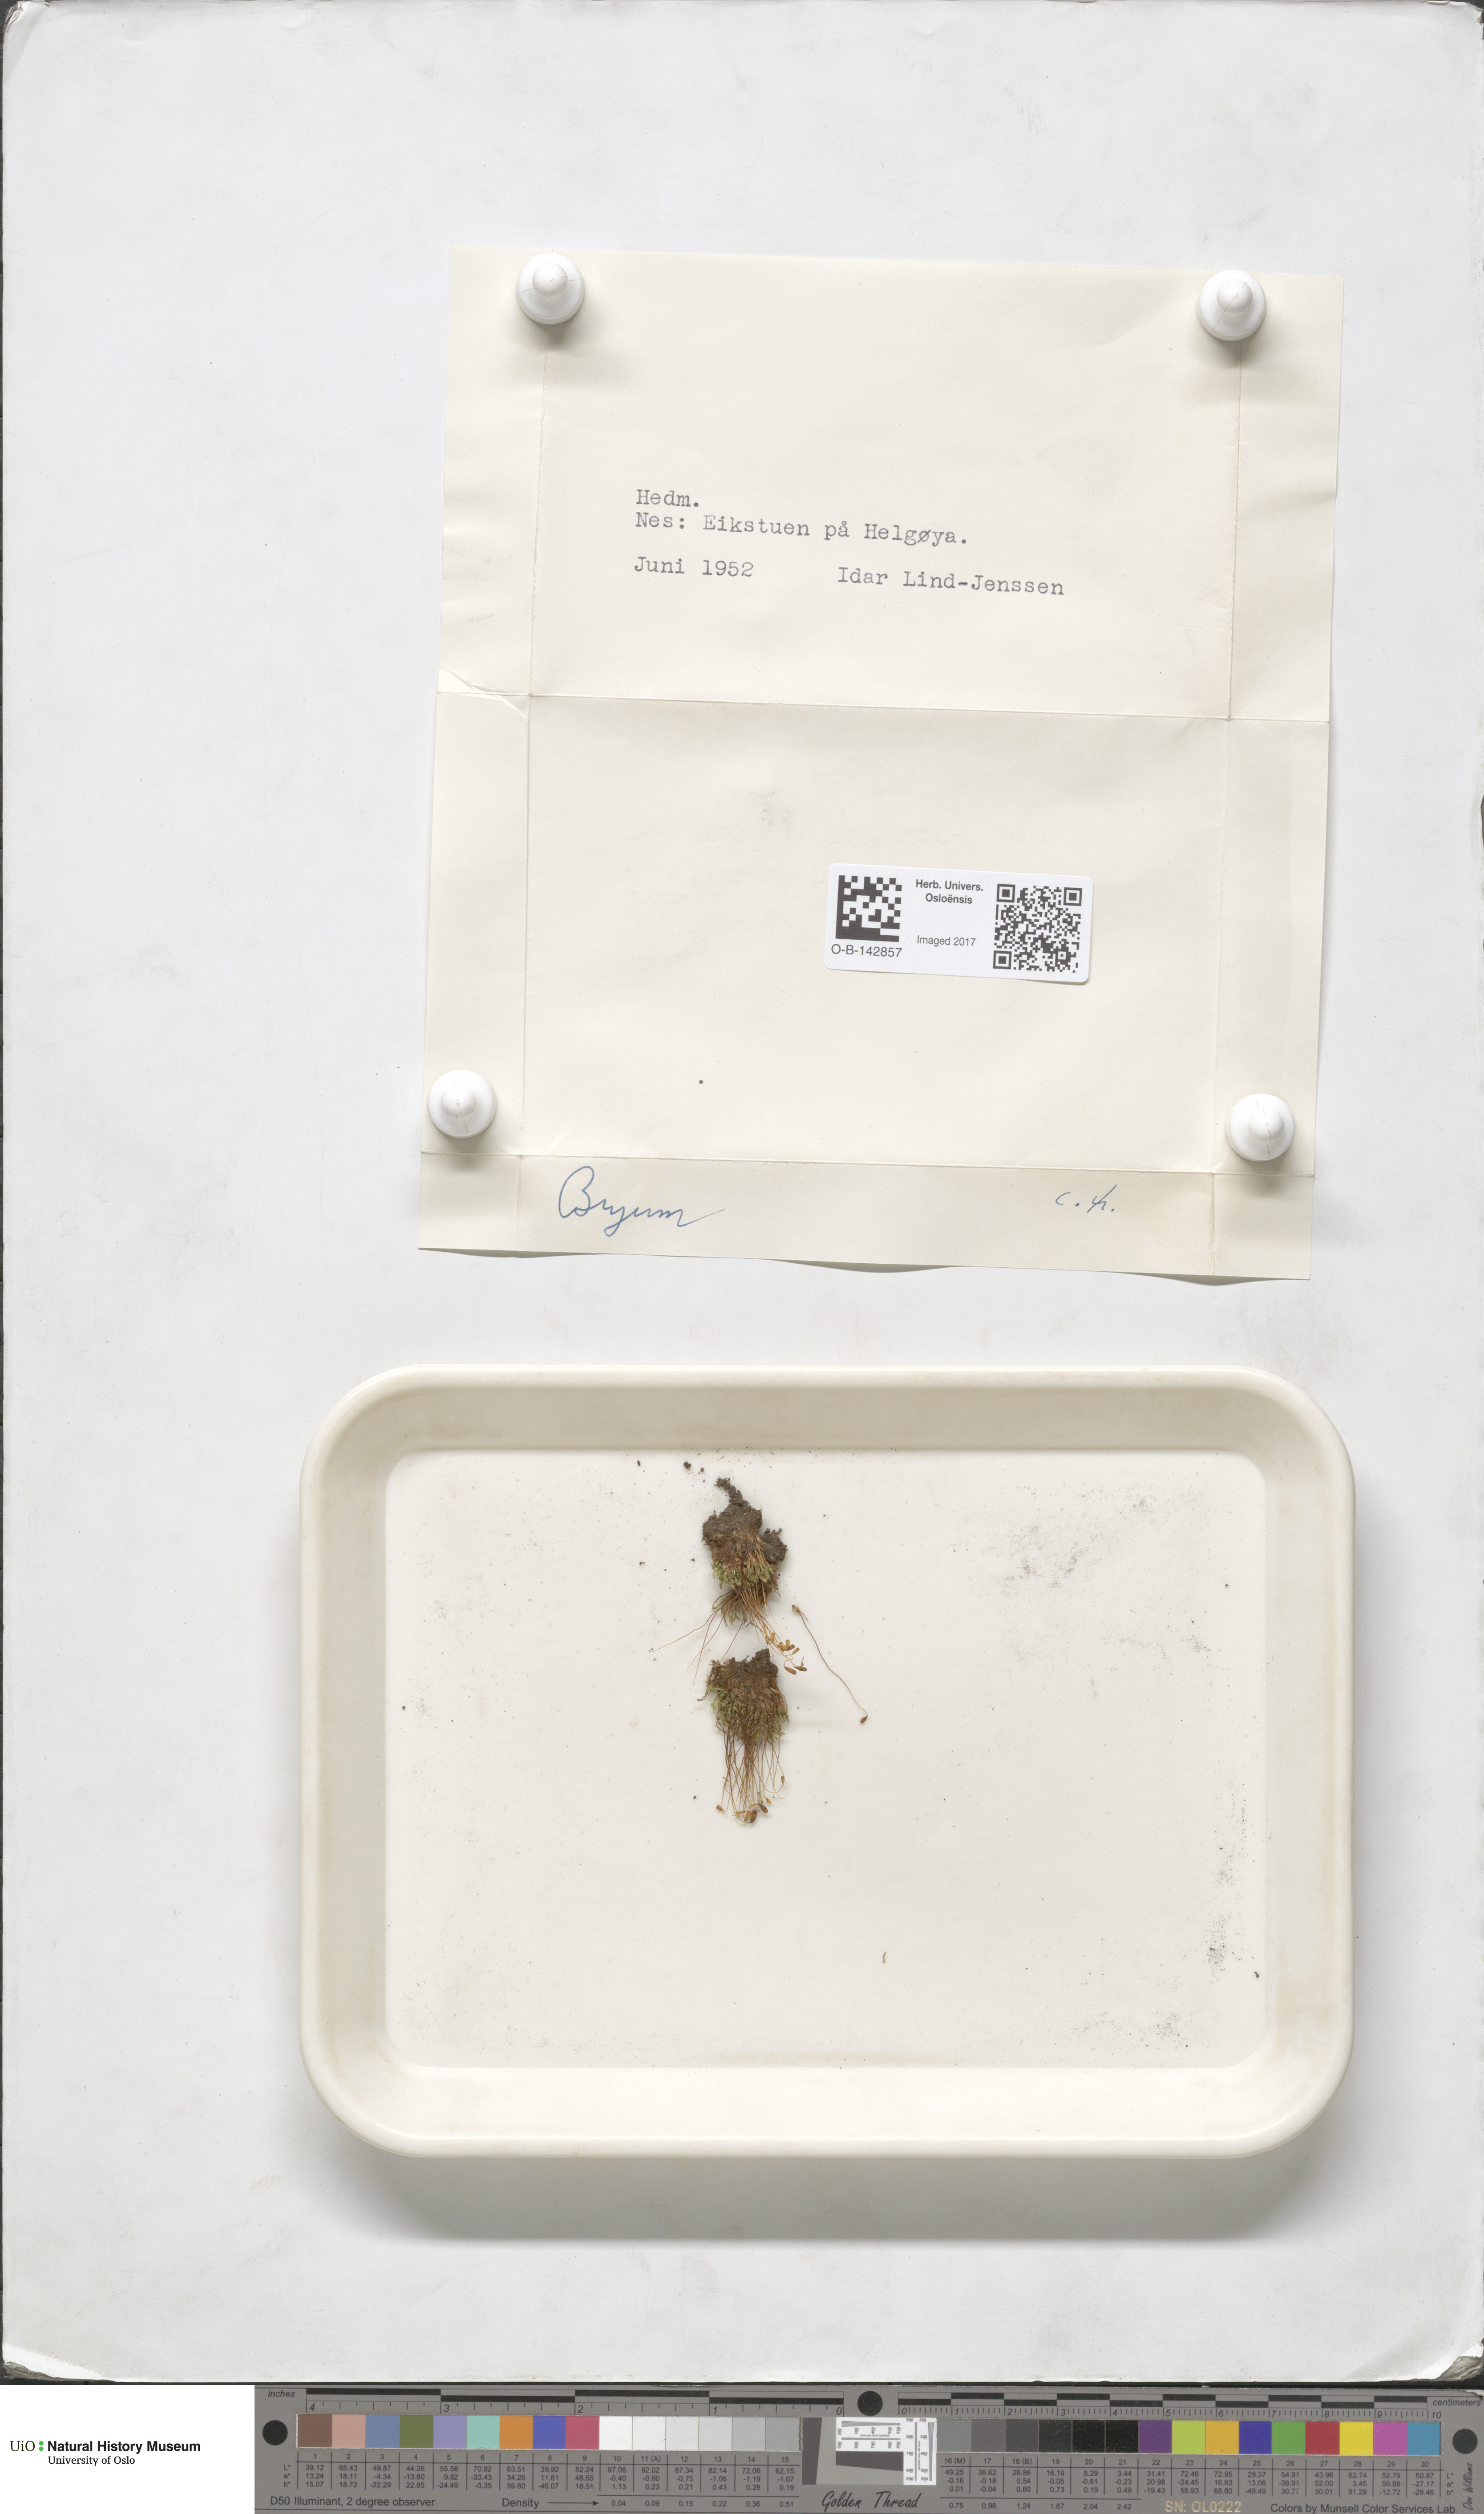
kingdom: Plantae
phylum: Bryophyta
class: Bryopsida
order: Bryales
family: Bryaceae
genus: Bryum
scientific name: Bryum
